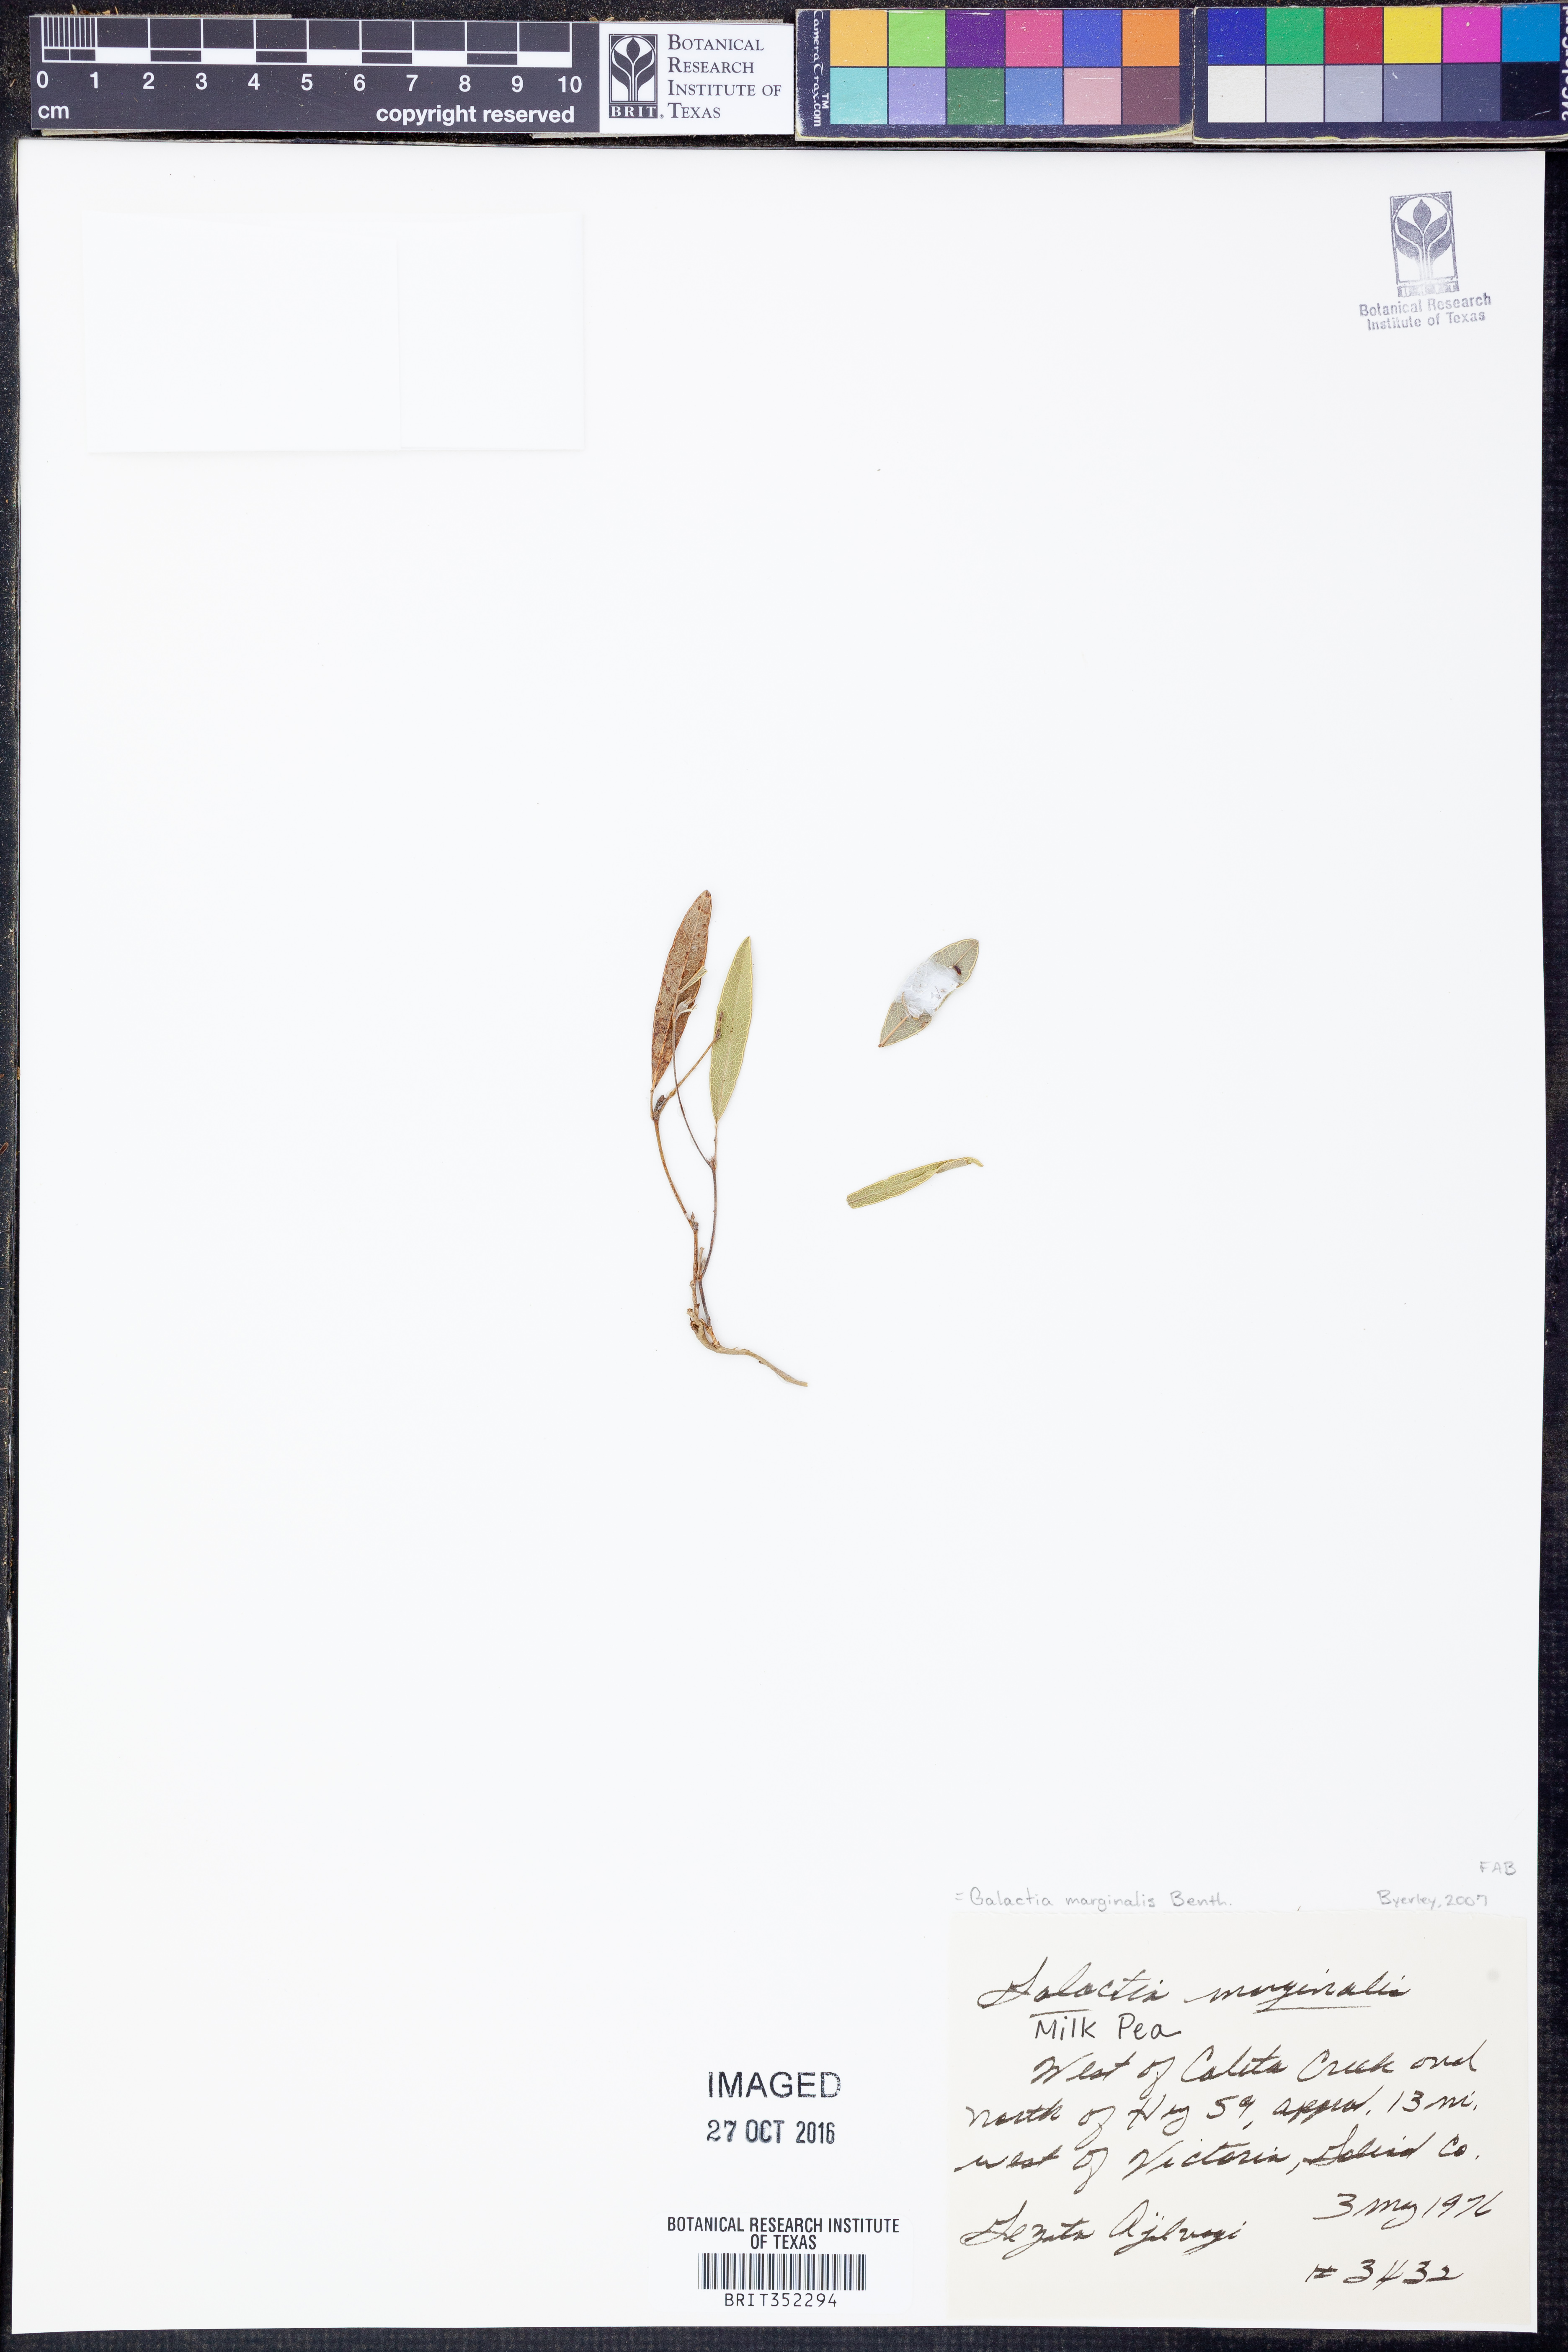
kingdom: Plantae
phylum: Tracheophyta
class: Magnoliopsida
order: Fabales
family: Fabaceae
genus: Nanogalactia
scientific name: Nanogalactia heterophylla
